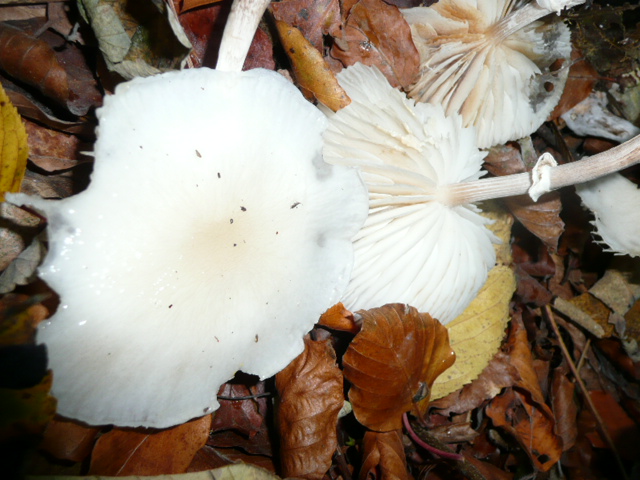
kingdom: Fungi
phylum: Basidiomycota
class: Agaricomycetes
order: Agaricales
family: Physalacriaceae
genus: Mucidula
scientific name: Mucidula mucida
